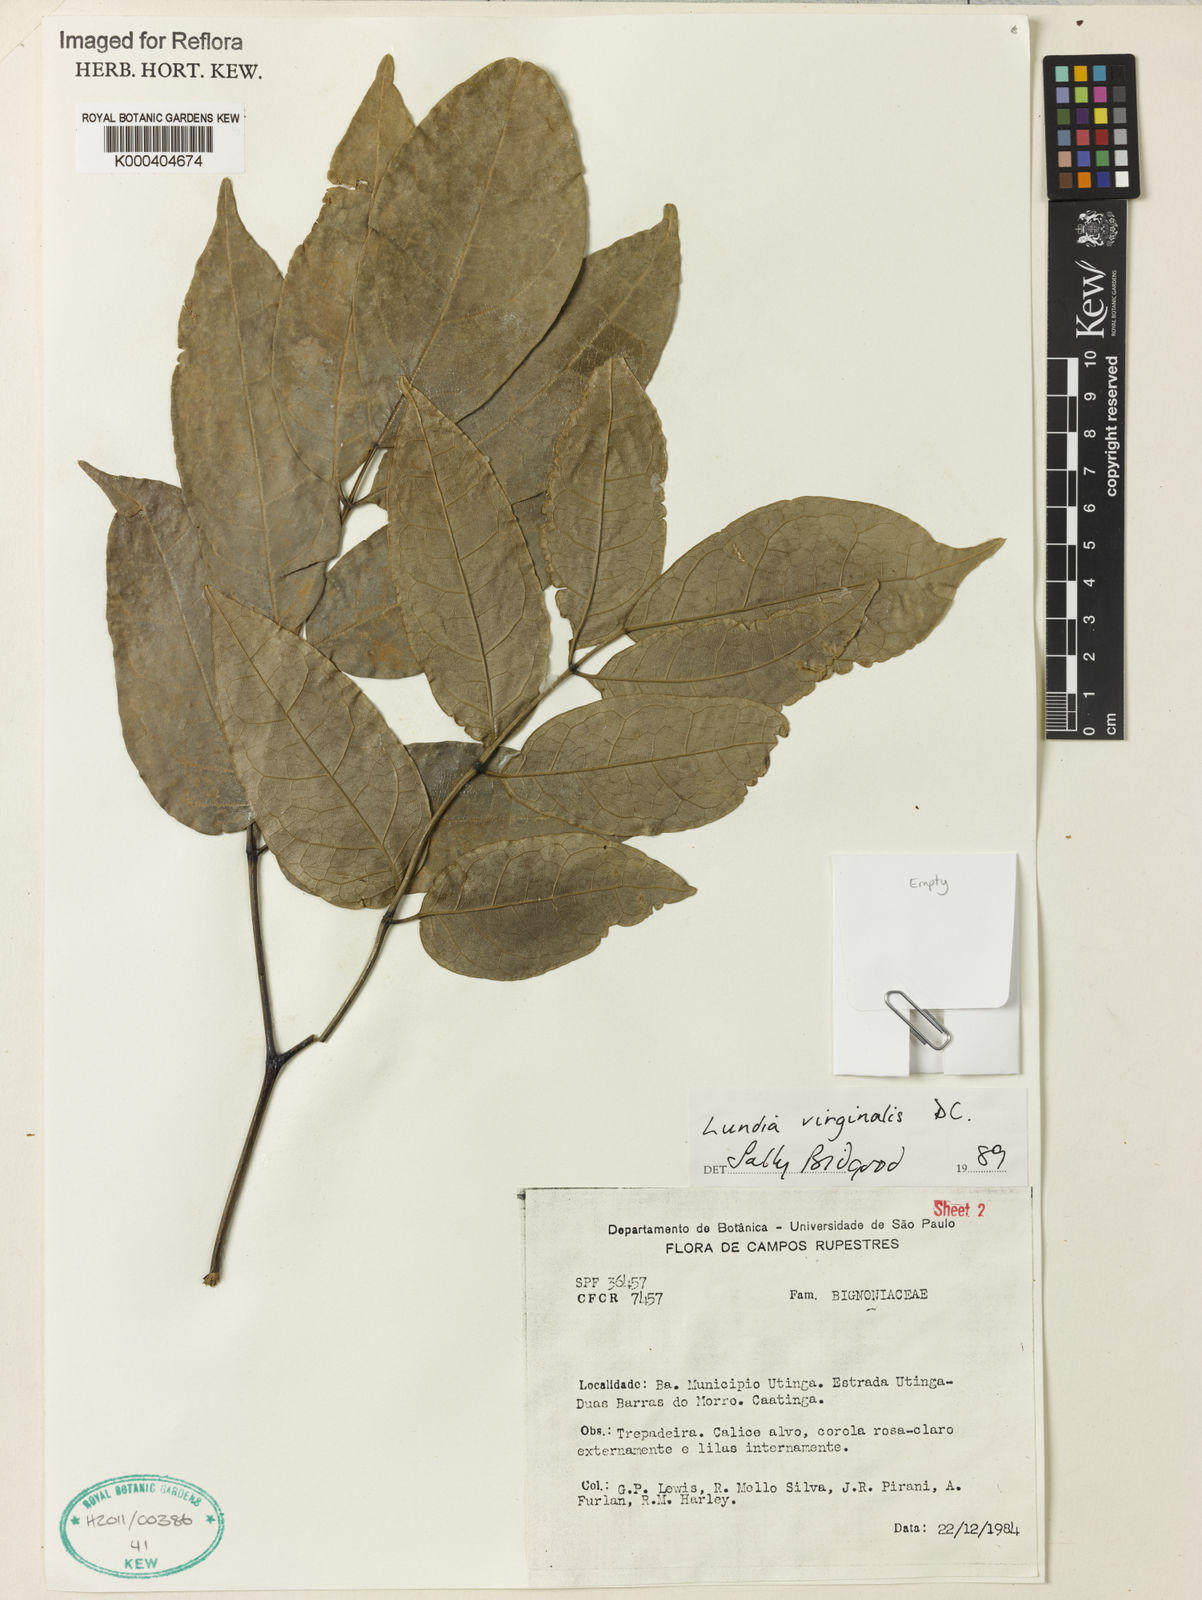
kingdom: Plantae
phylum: Tracheophyta
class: Magnoliopsida
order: Lamiales
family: Bignoniaceae
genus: Lundia
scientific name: Lundia virginalis
